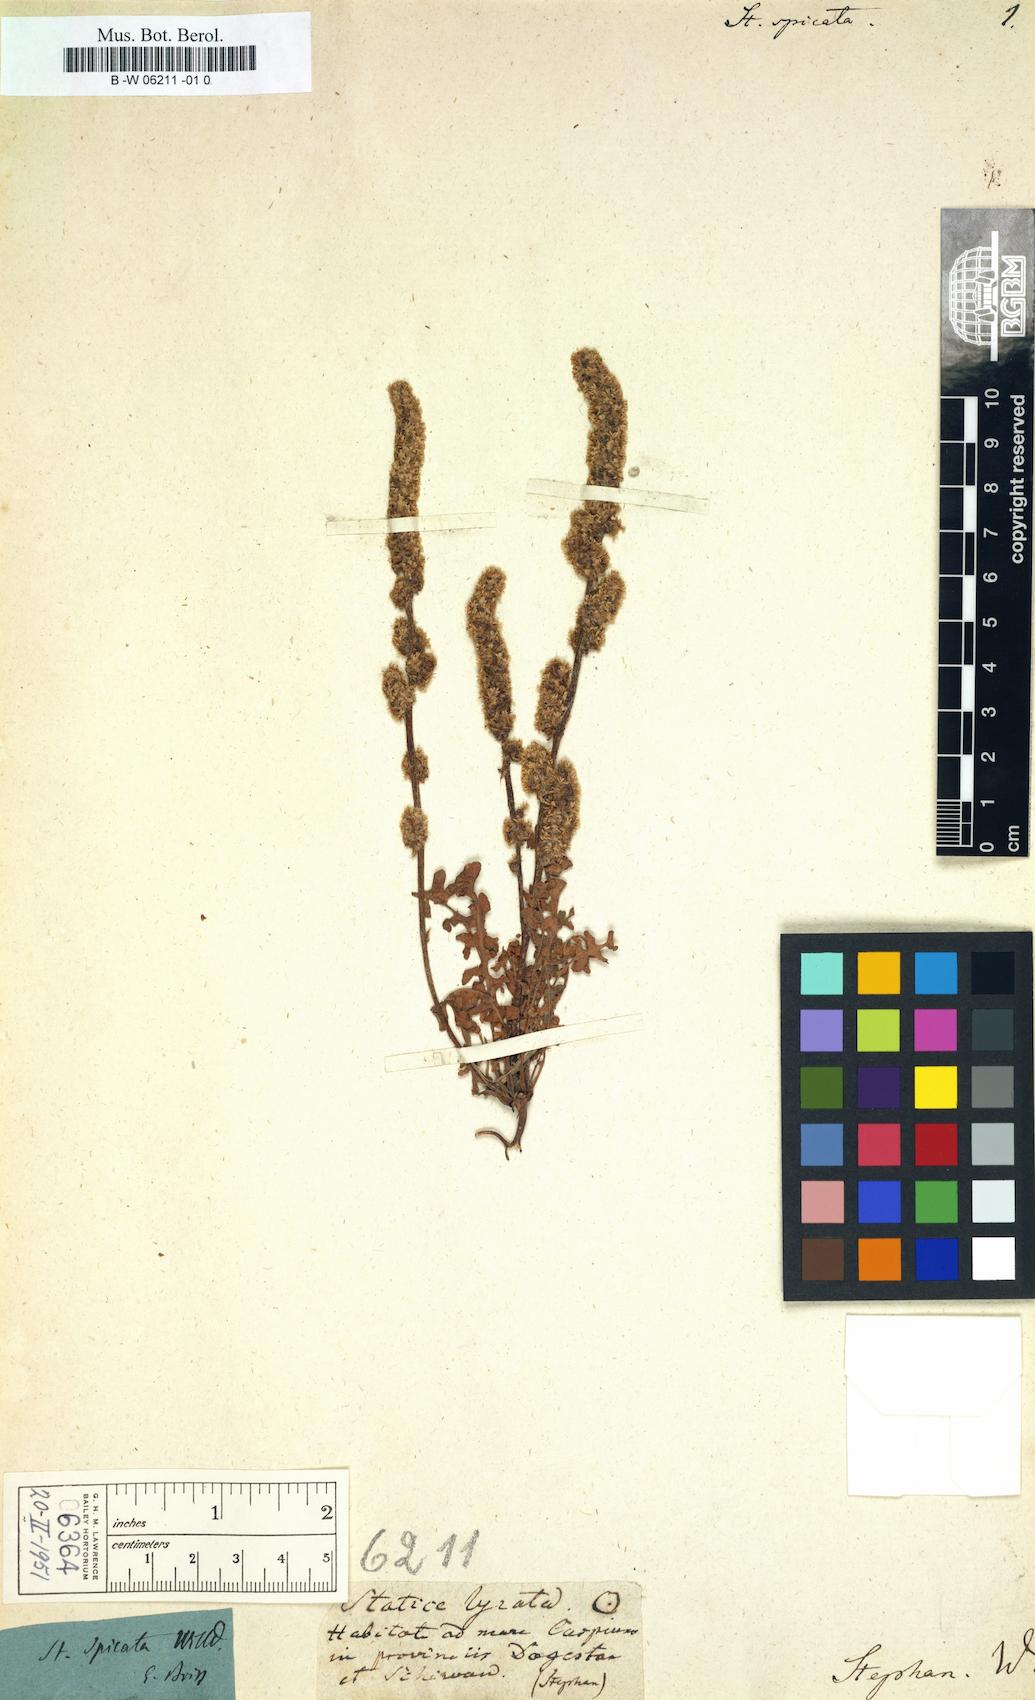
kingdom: Plantae
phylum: Tracheophyta
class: Magnoliopsida
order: Caryophyllales
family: Plumbaginaceae
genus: Psylliostachys
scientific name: Psylliostachys spicatus
